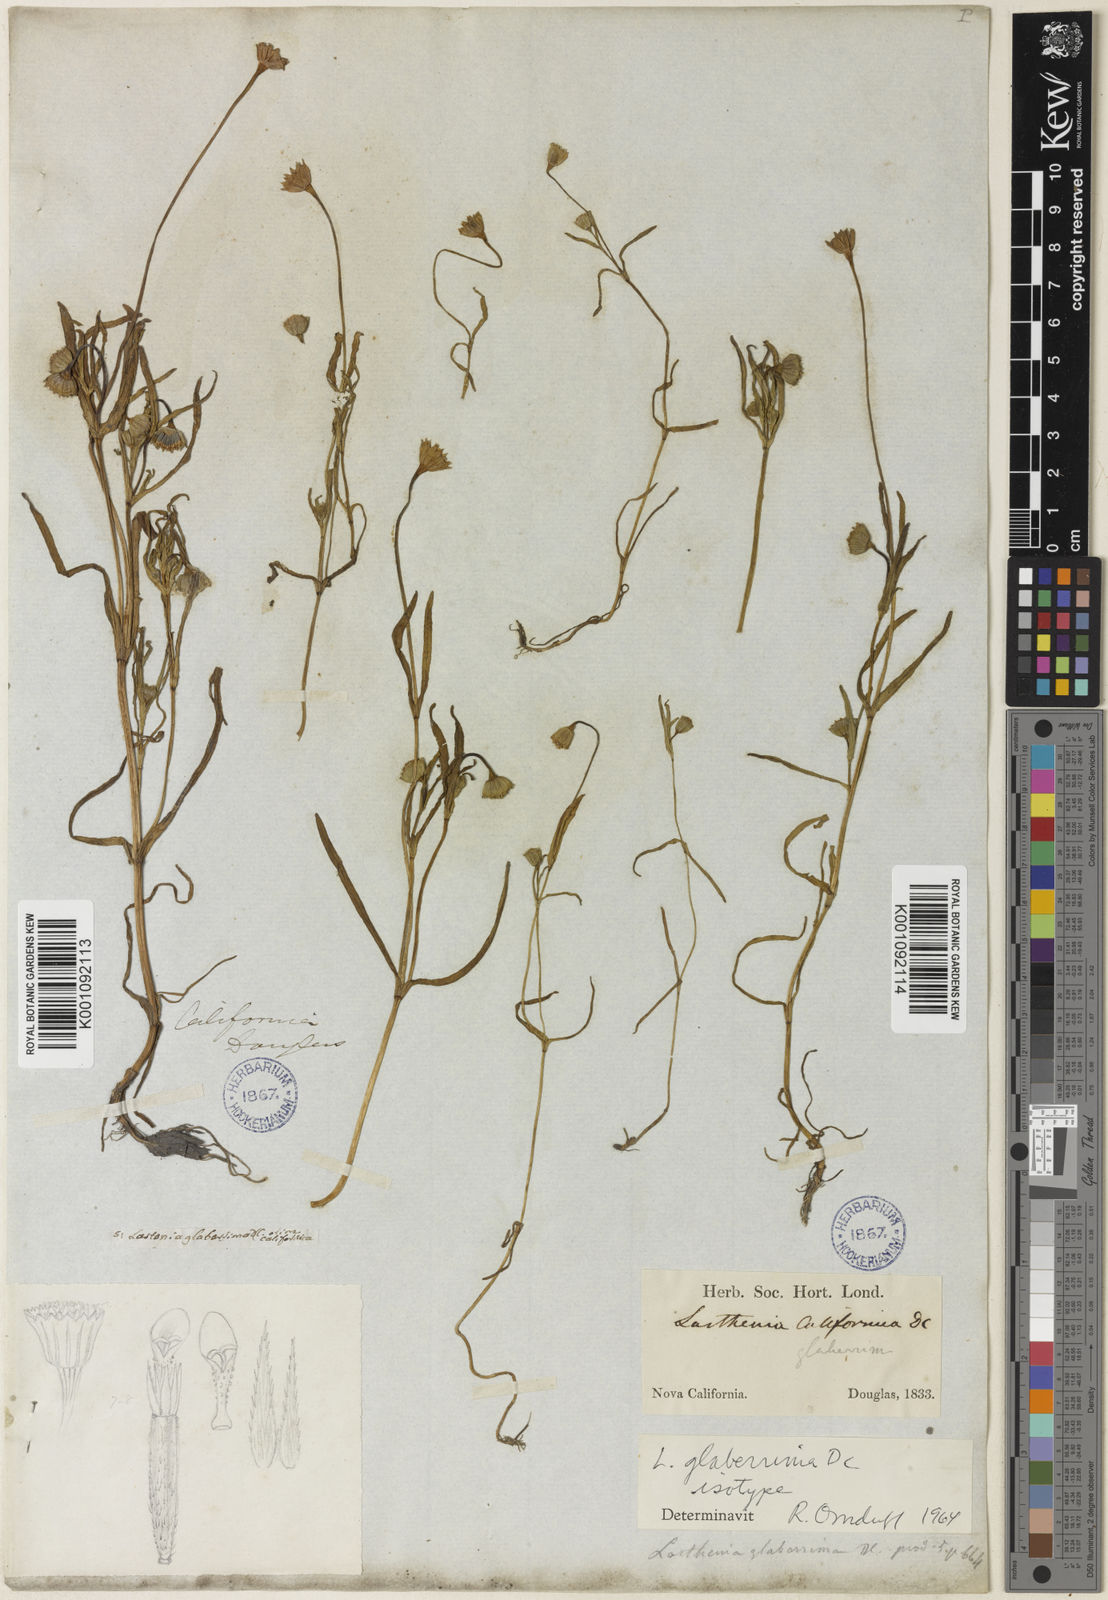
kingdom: Plantae
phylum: Tracheophyta
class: Magnoliopsida
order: Asterales
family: Asteraceae
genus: Lasthenia
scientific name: Lasthenia glaberrima
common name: Smooth goldfields
